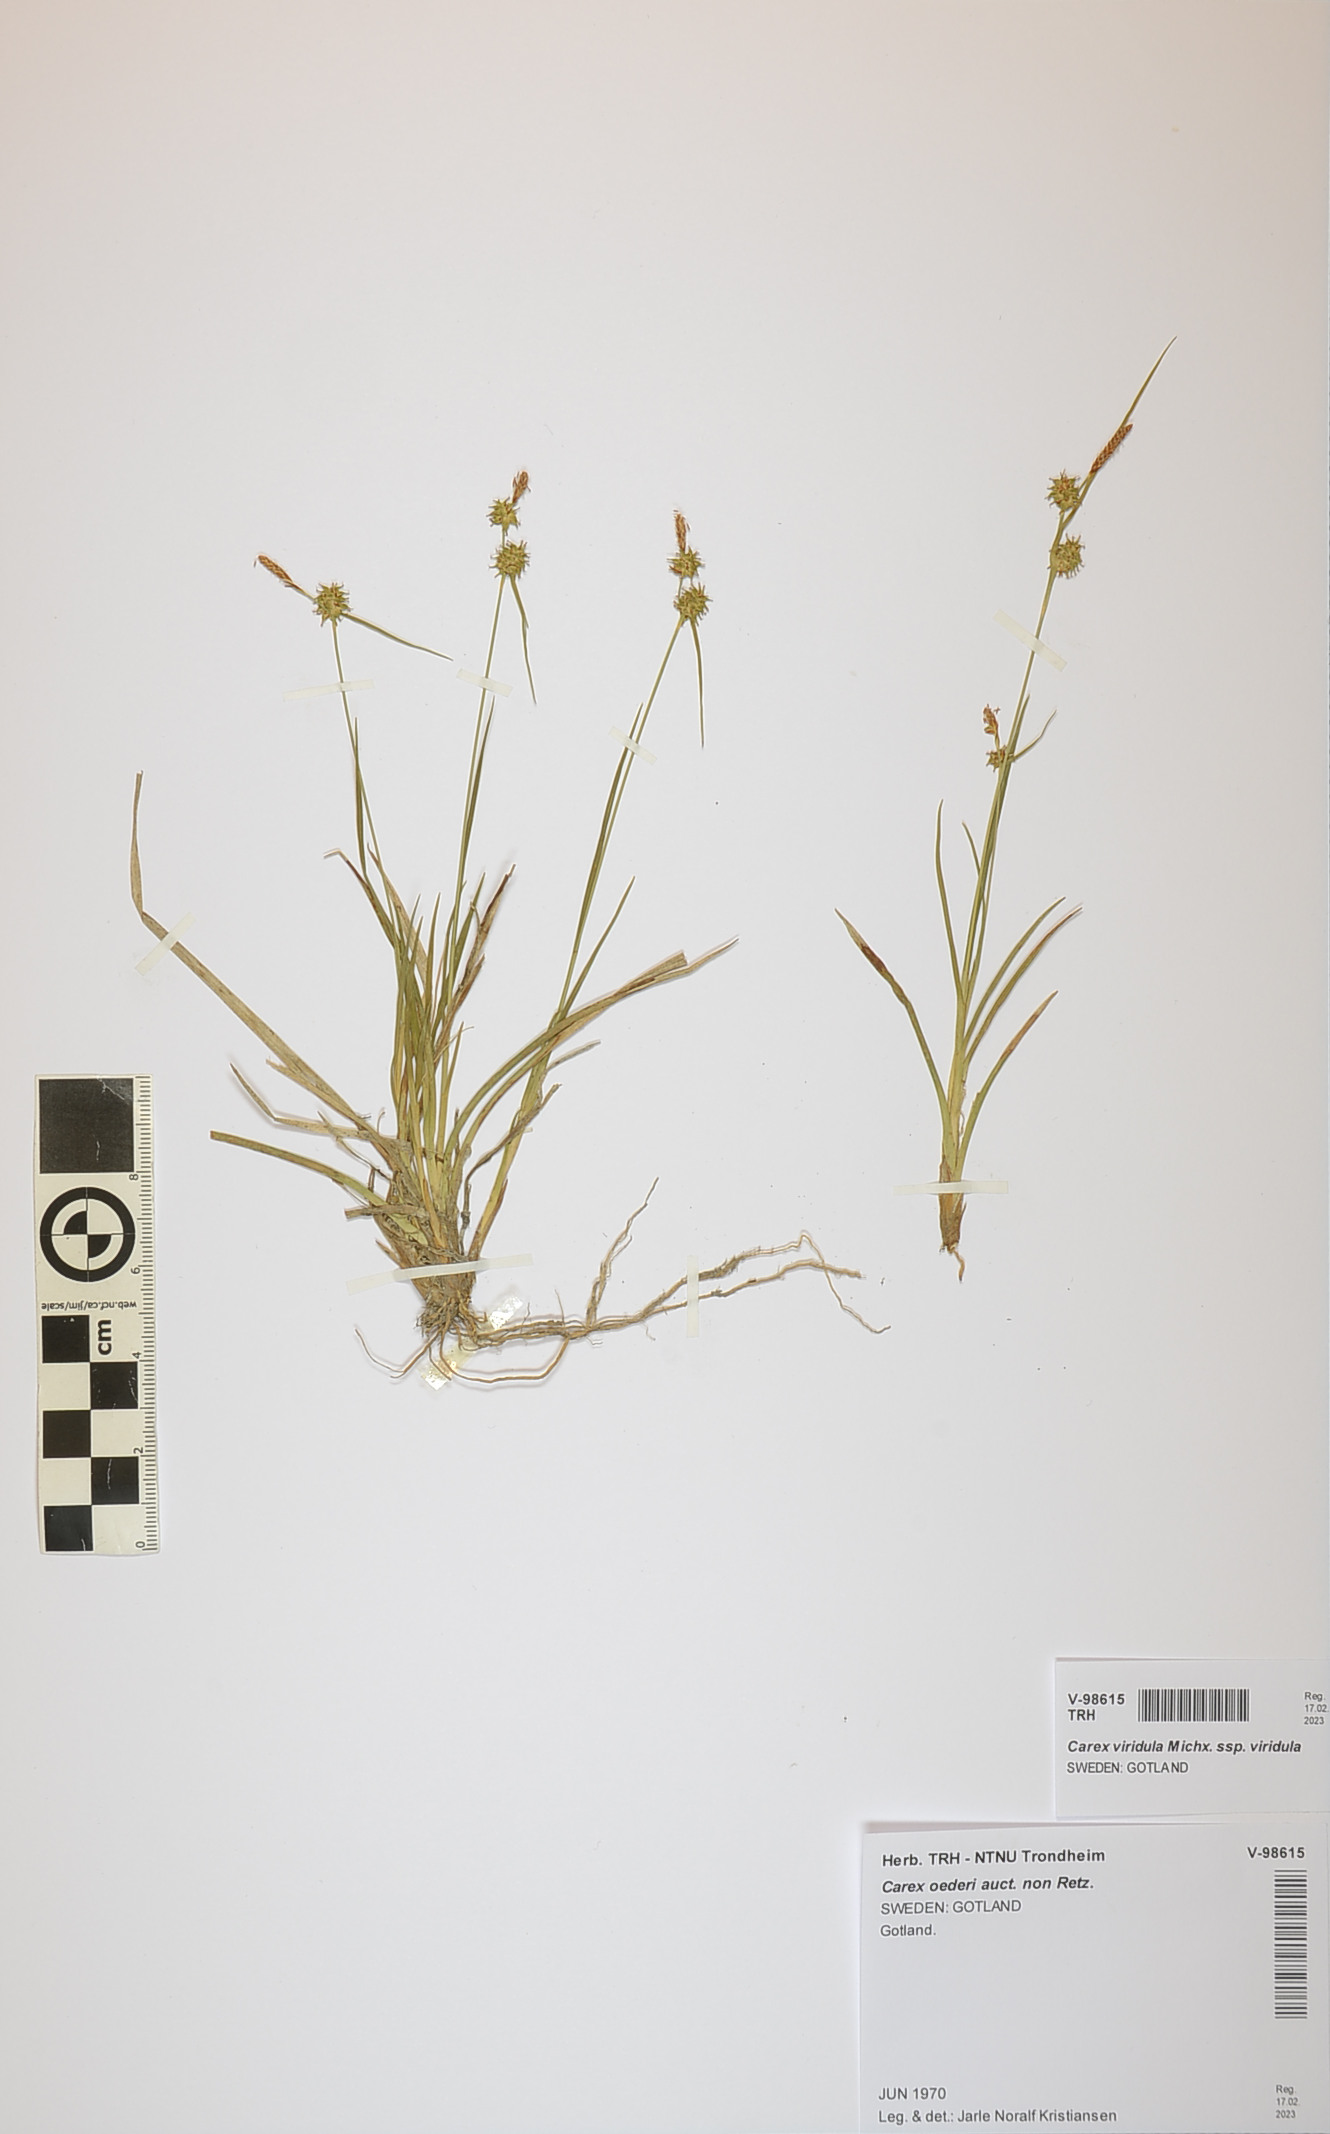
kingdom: Plantae
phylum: Tracheophyta
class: Liliopsida
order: Poales
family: Cyperaceae
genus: Carex
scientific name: Carex oederi
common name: Common & small-fruited yellow-sedge
